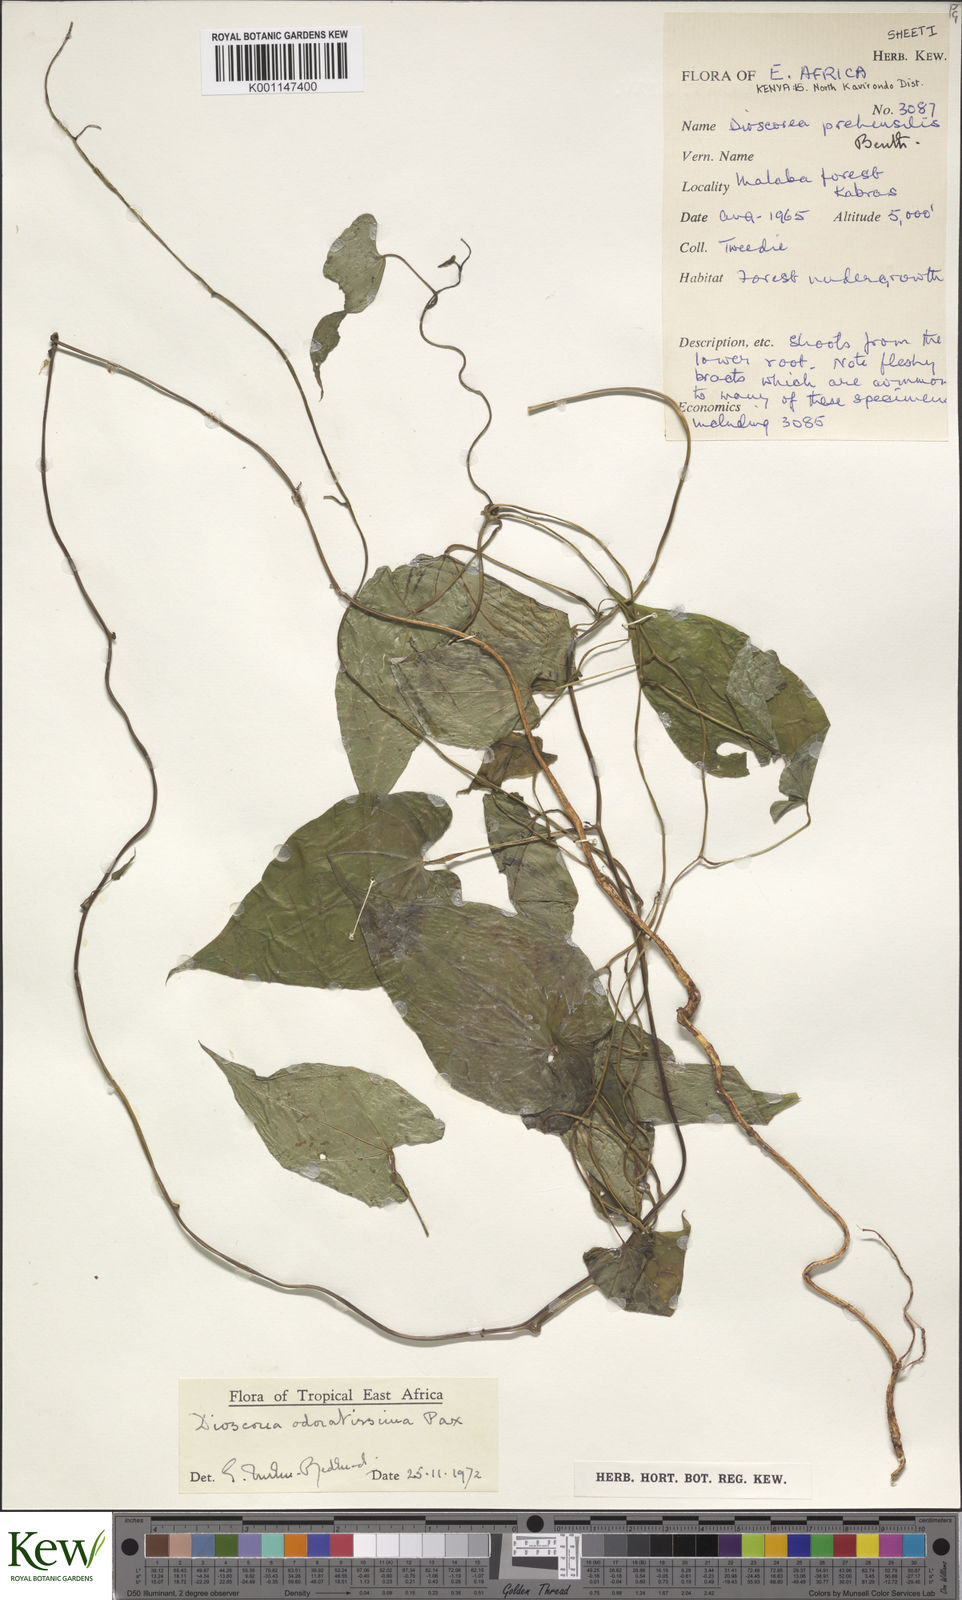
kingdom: Plantae
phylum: Tracheophyta
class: Liliopsida
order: Dioscoreales
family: Dioscoreaceae
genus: Dioscorea
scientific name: Dioscorea praehensilis
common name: Bush yam
